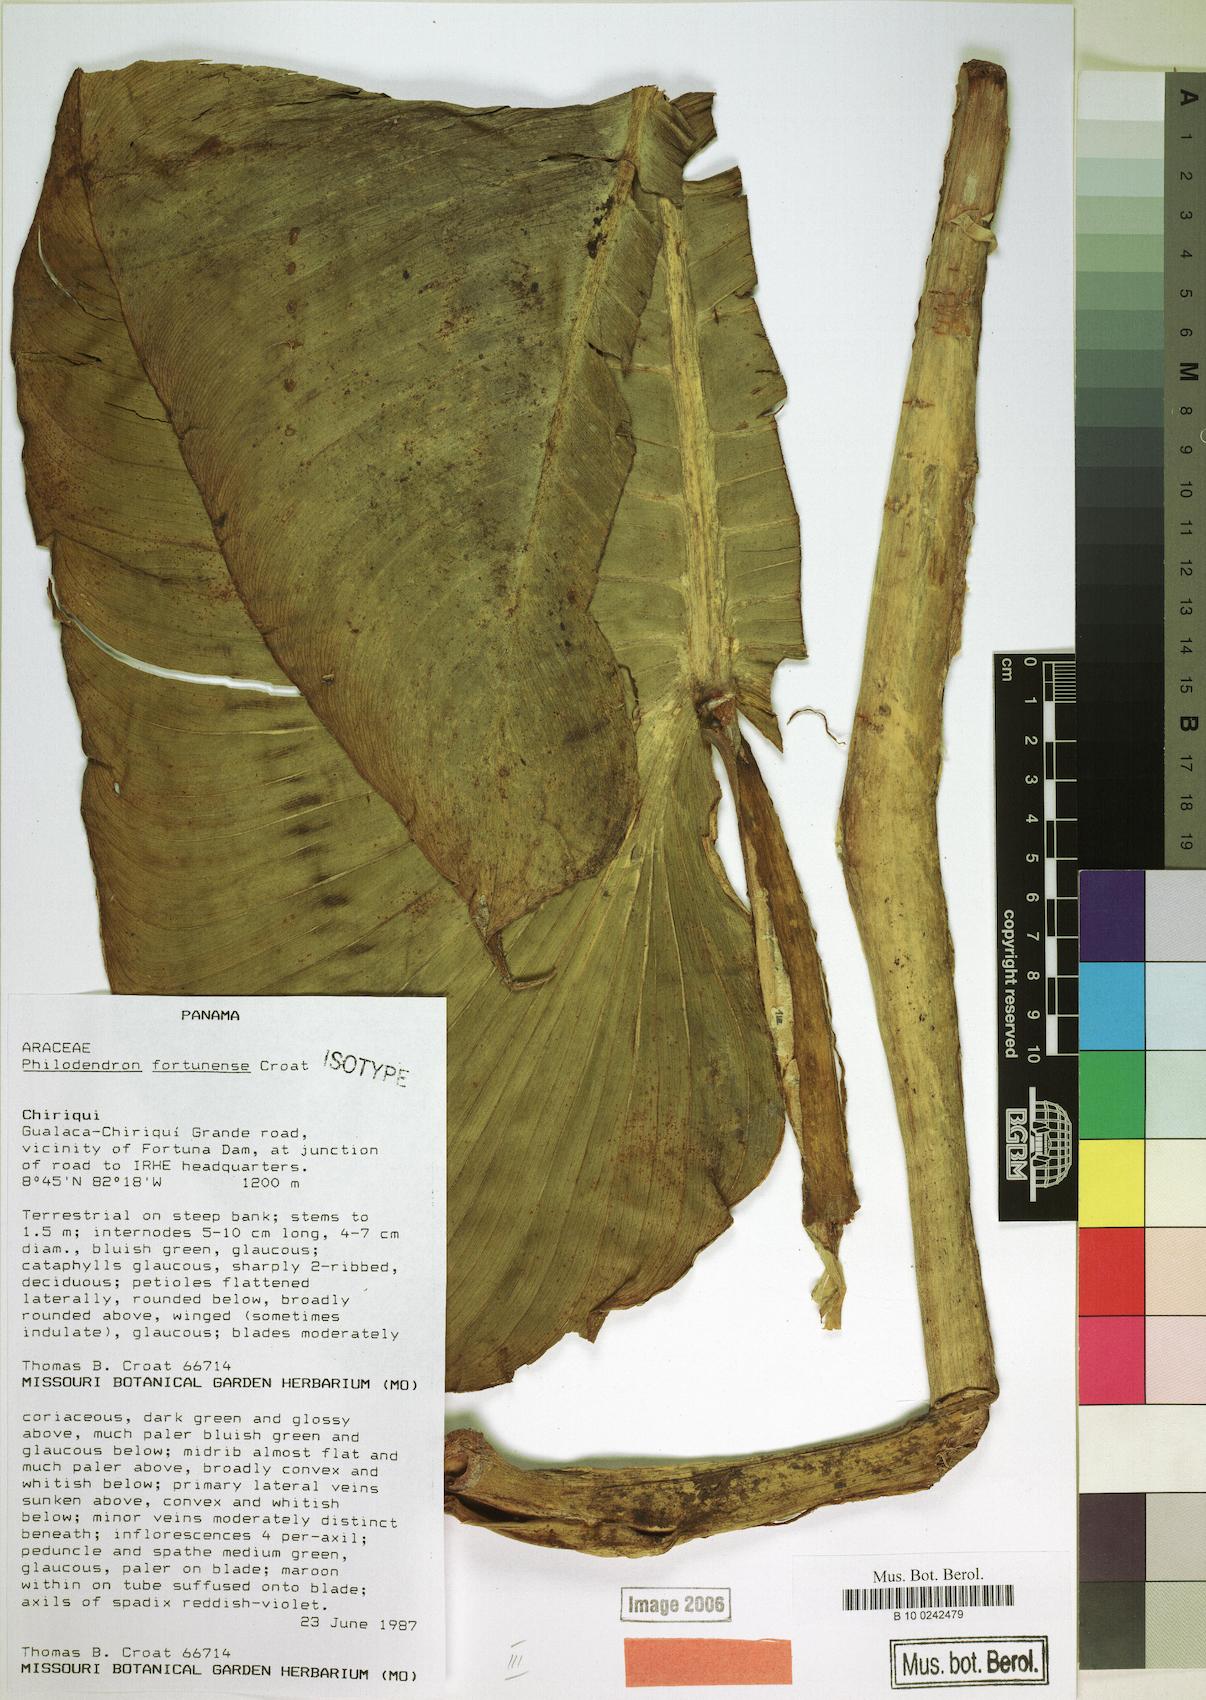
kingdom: Plantae
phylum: Tracheophyta
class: Liliopsida
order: Alismatales
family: Araceae
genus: Philodendron
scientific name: Philodendron fortunense
